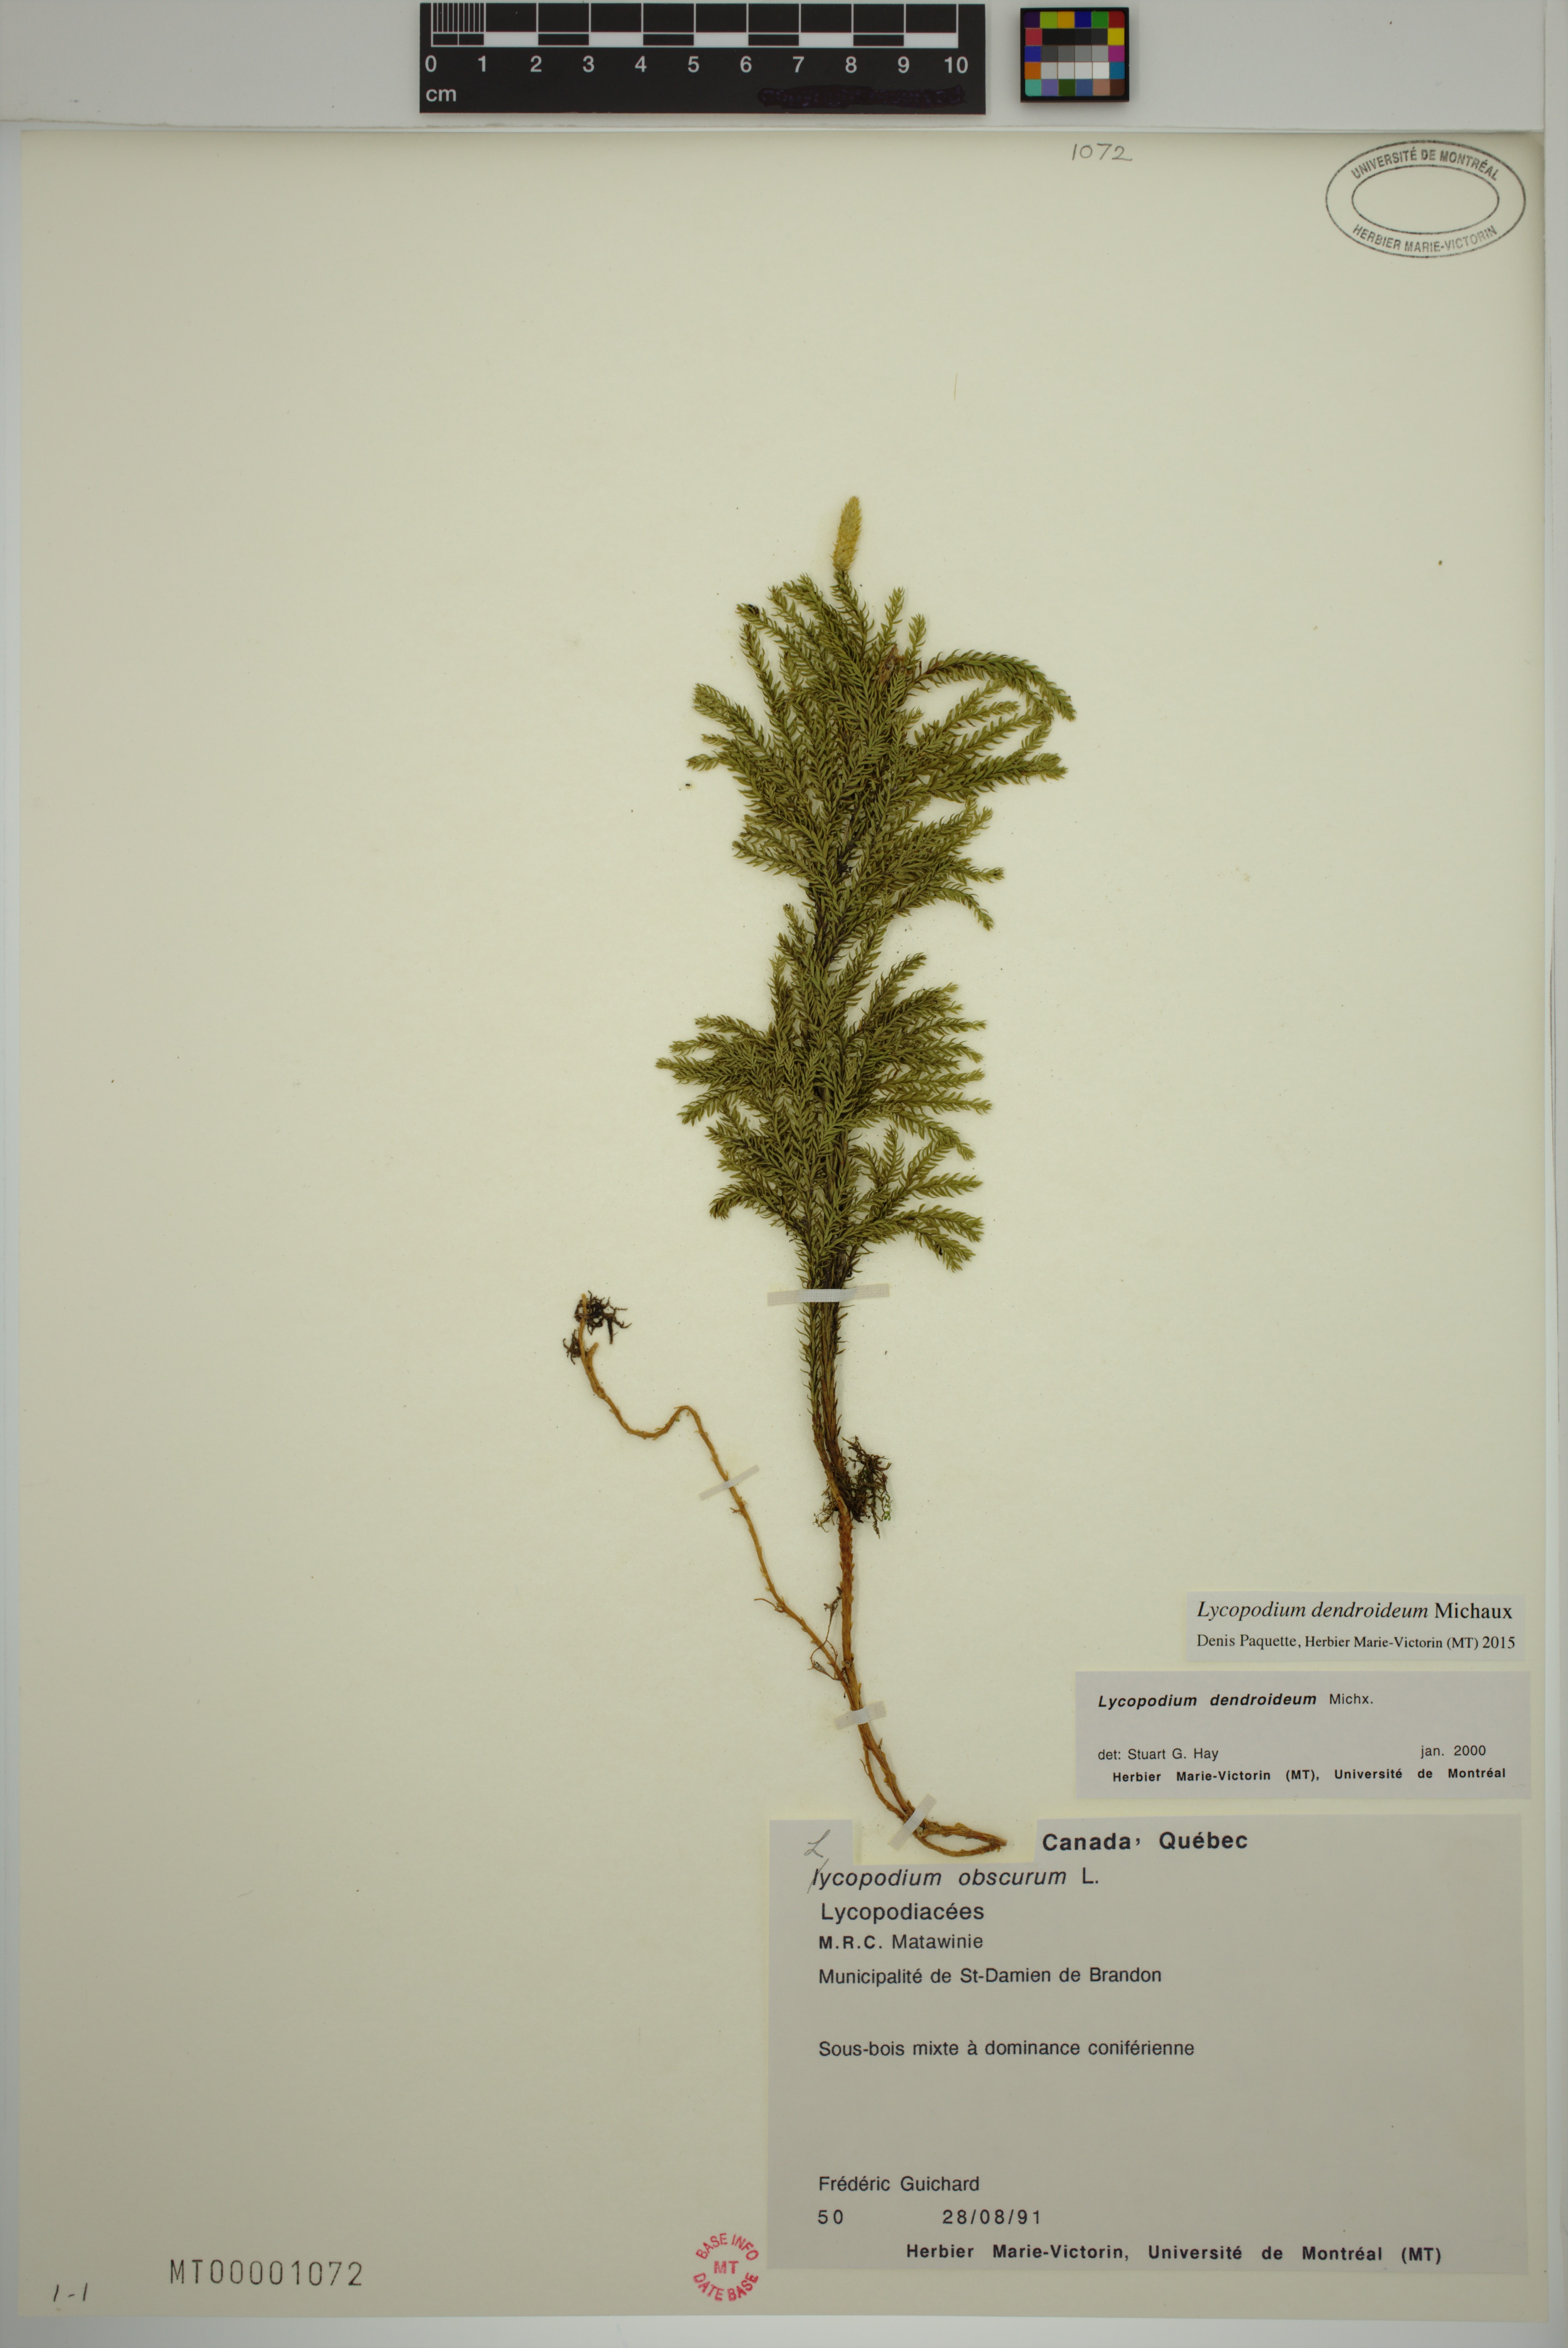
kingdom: Plantae
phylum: Tracheophyta
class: Lycopodiopsida
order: Lycopodiales
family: Lycopodiaceae
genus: Dendrolycopodium
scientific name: Dendrolycopodium dendroideum
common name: Northern tree-clubmoss
